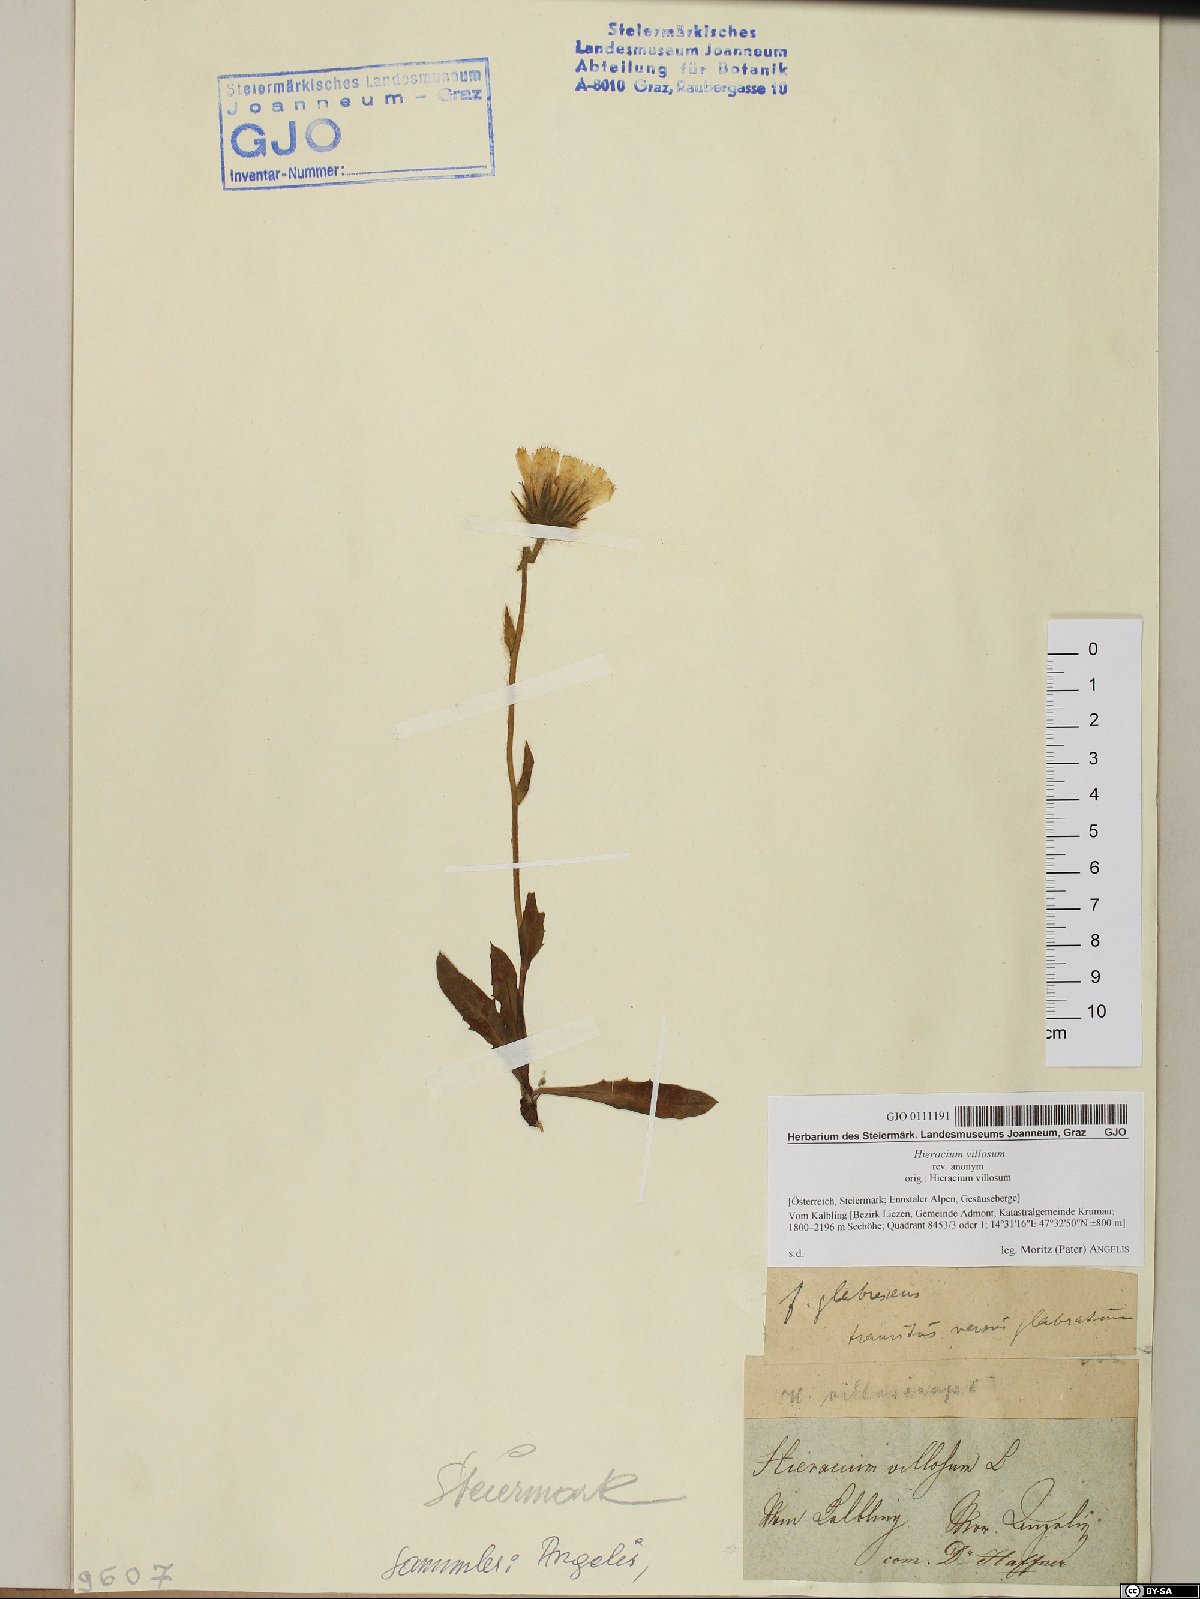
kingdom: Plantae
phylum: Tracheophyta
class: Magnoliopsida
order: Asterales
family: Asteraceae
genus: Hieracium
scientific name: Hieracium villosum
